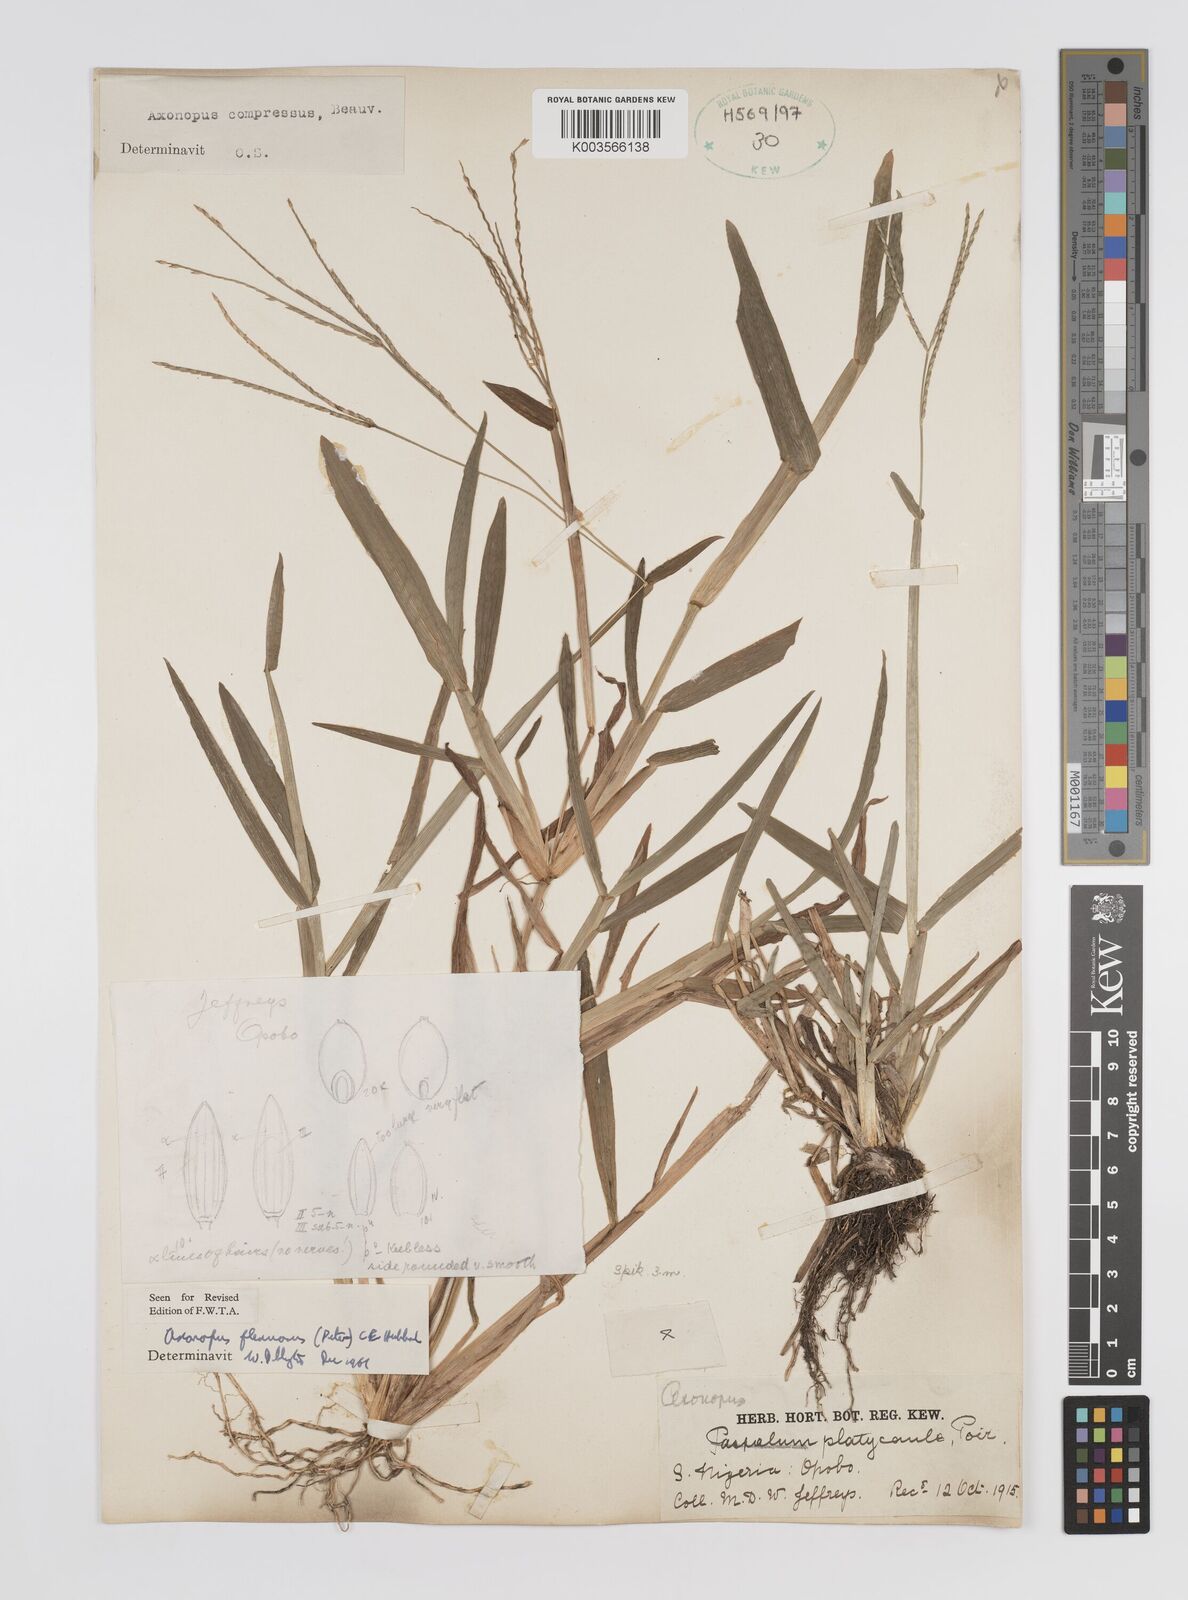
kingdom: Plantae
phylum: Tracheophyta
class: Liliopsida
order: Poales
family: Poaceae
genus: Axonopus
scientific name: Axonopus flexuosus
